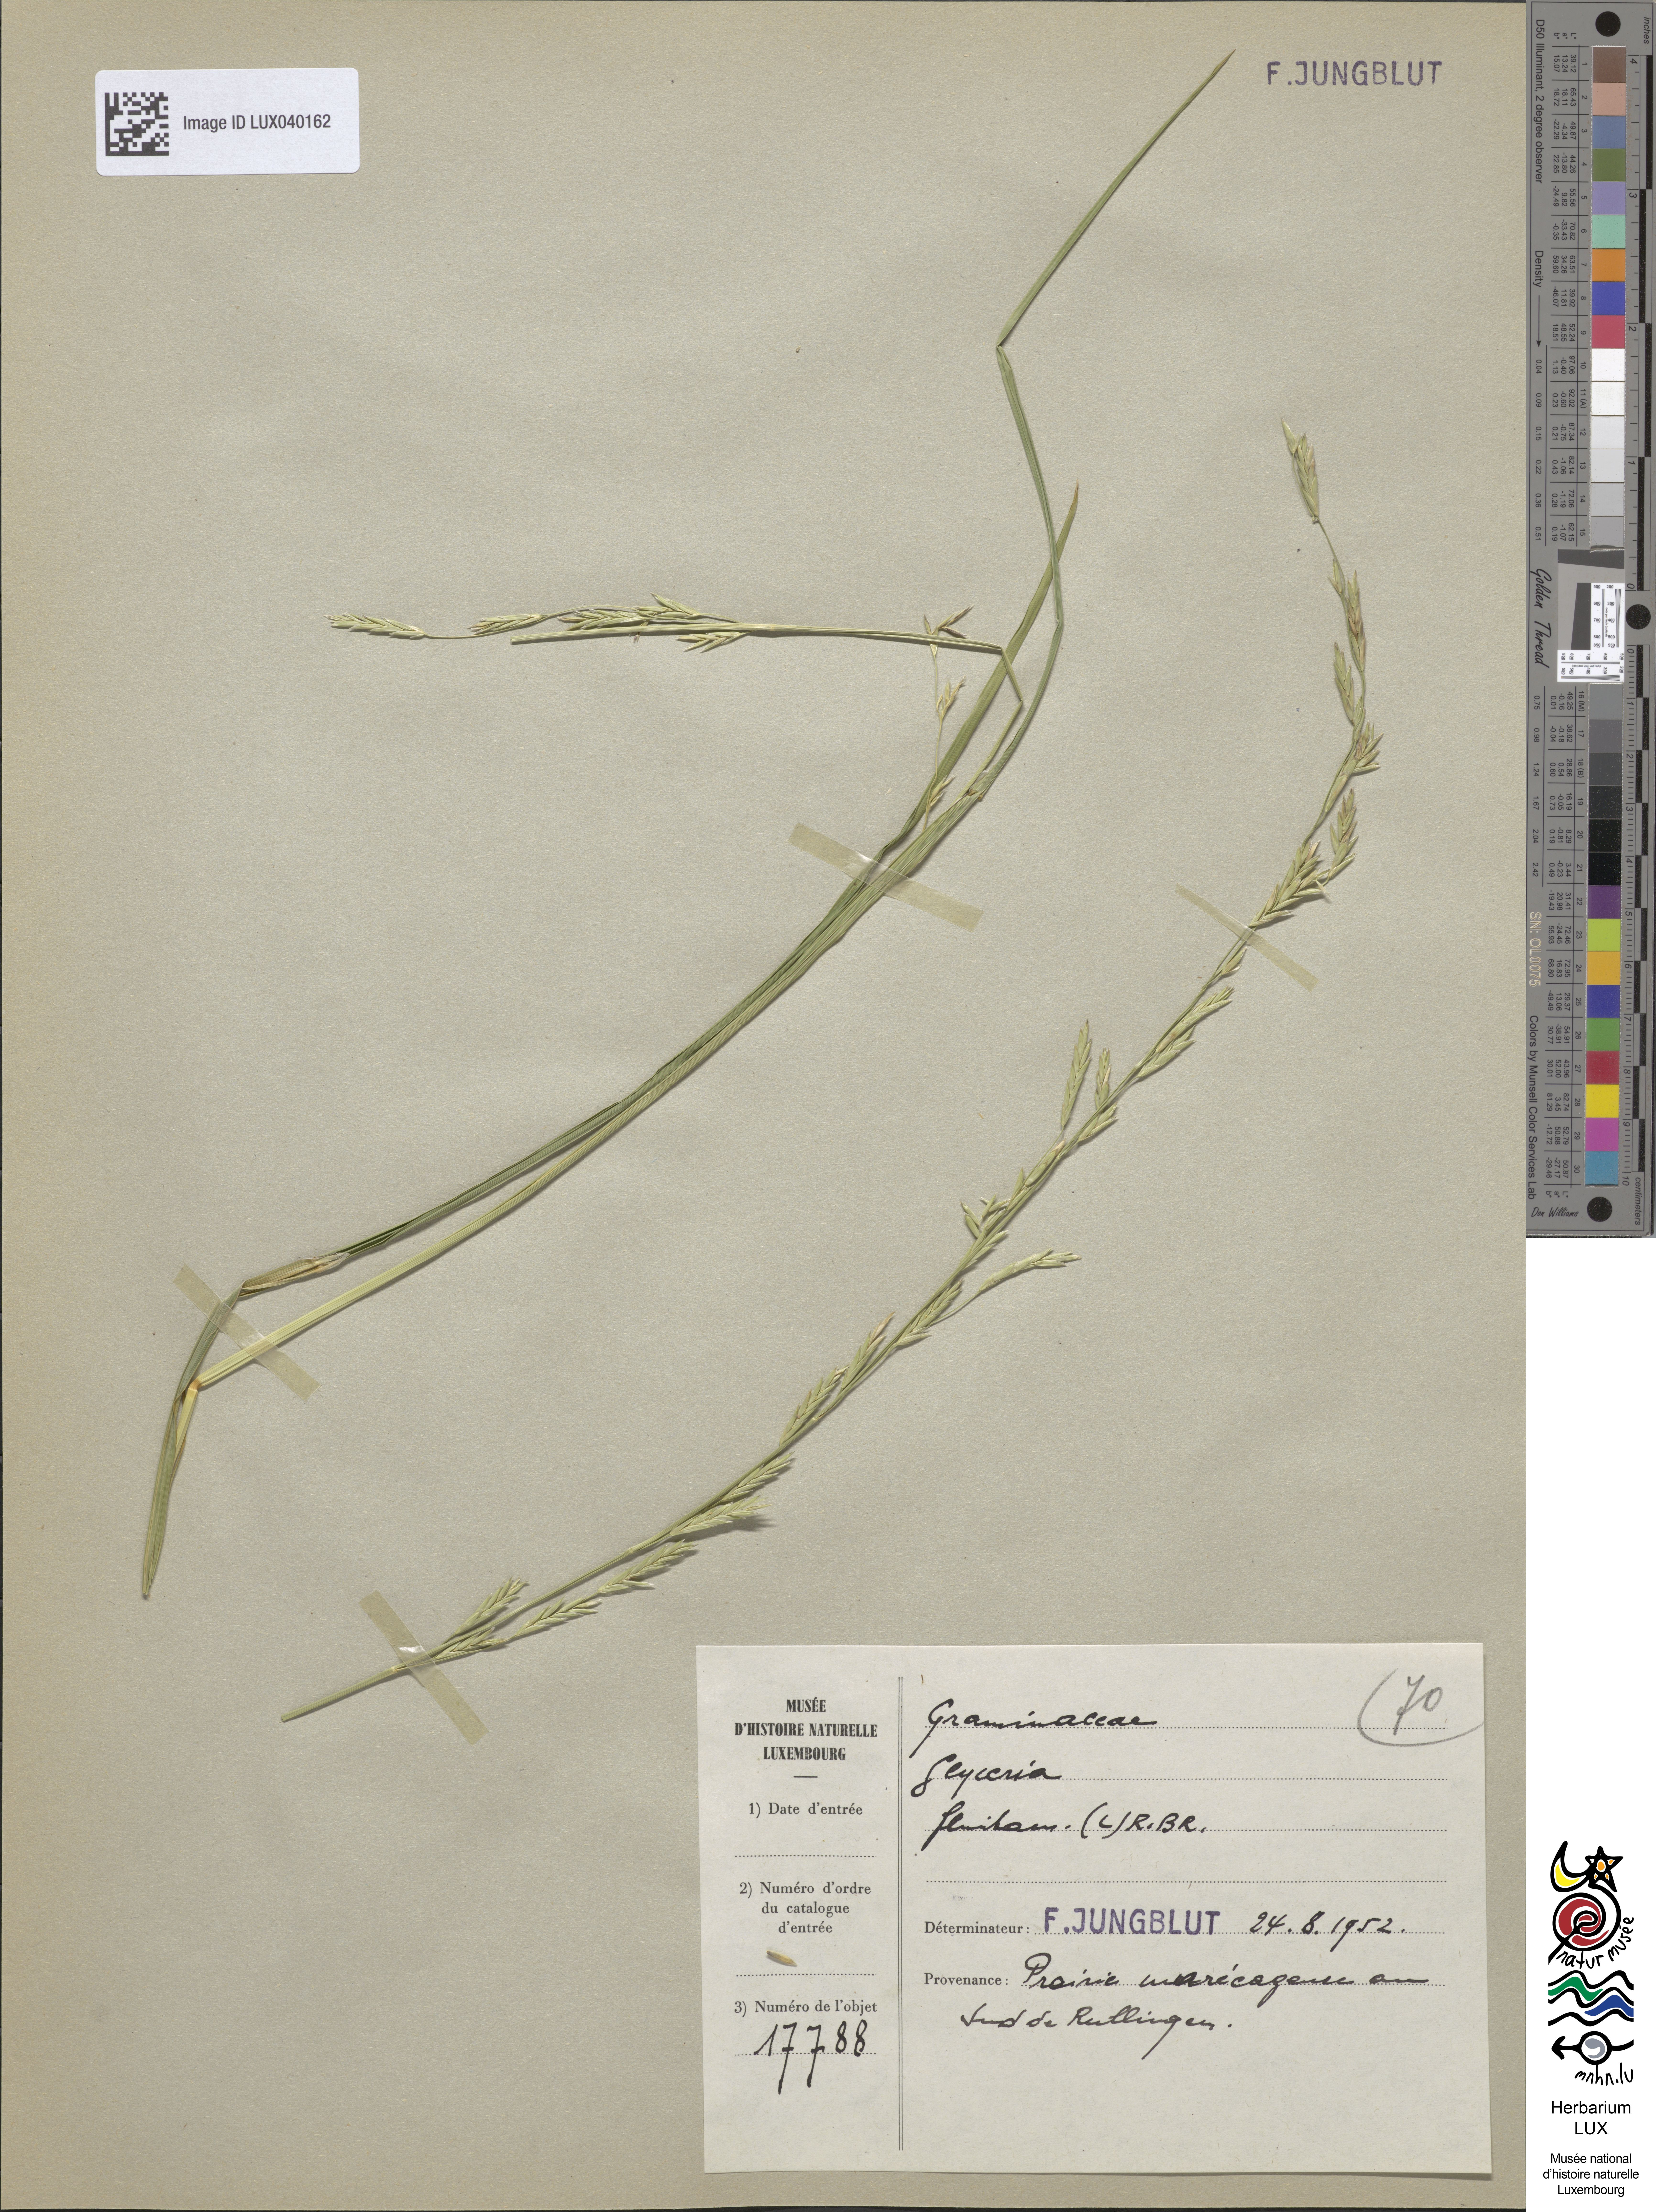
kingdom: Plantae
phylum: Tracheophyta
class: Liliopsida
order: Poales
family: Poaceae
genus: Glyceria
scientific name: Glyceria fluitans
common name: Floating sweet-grass
